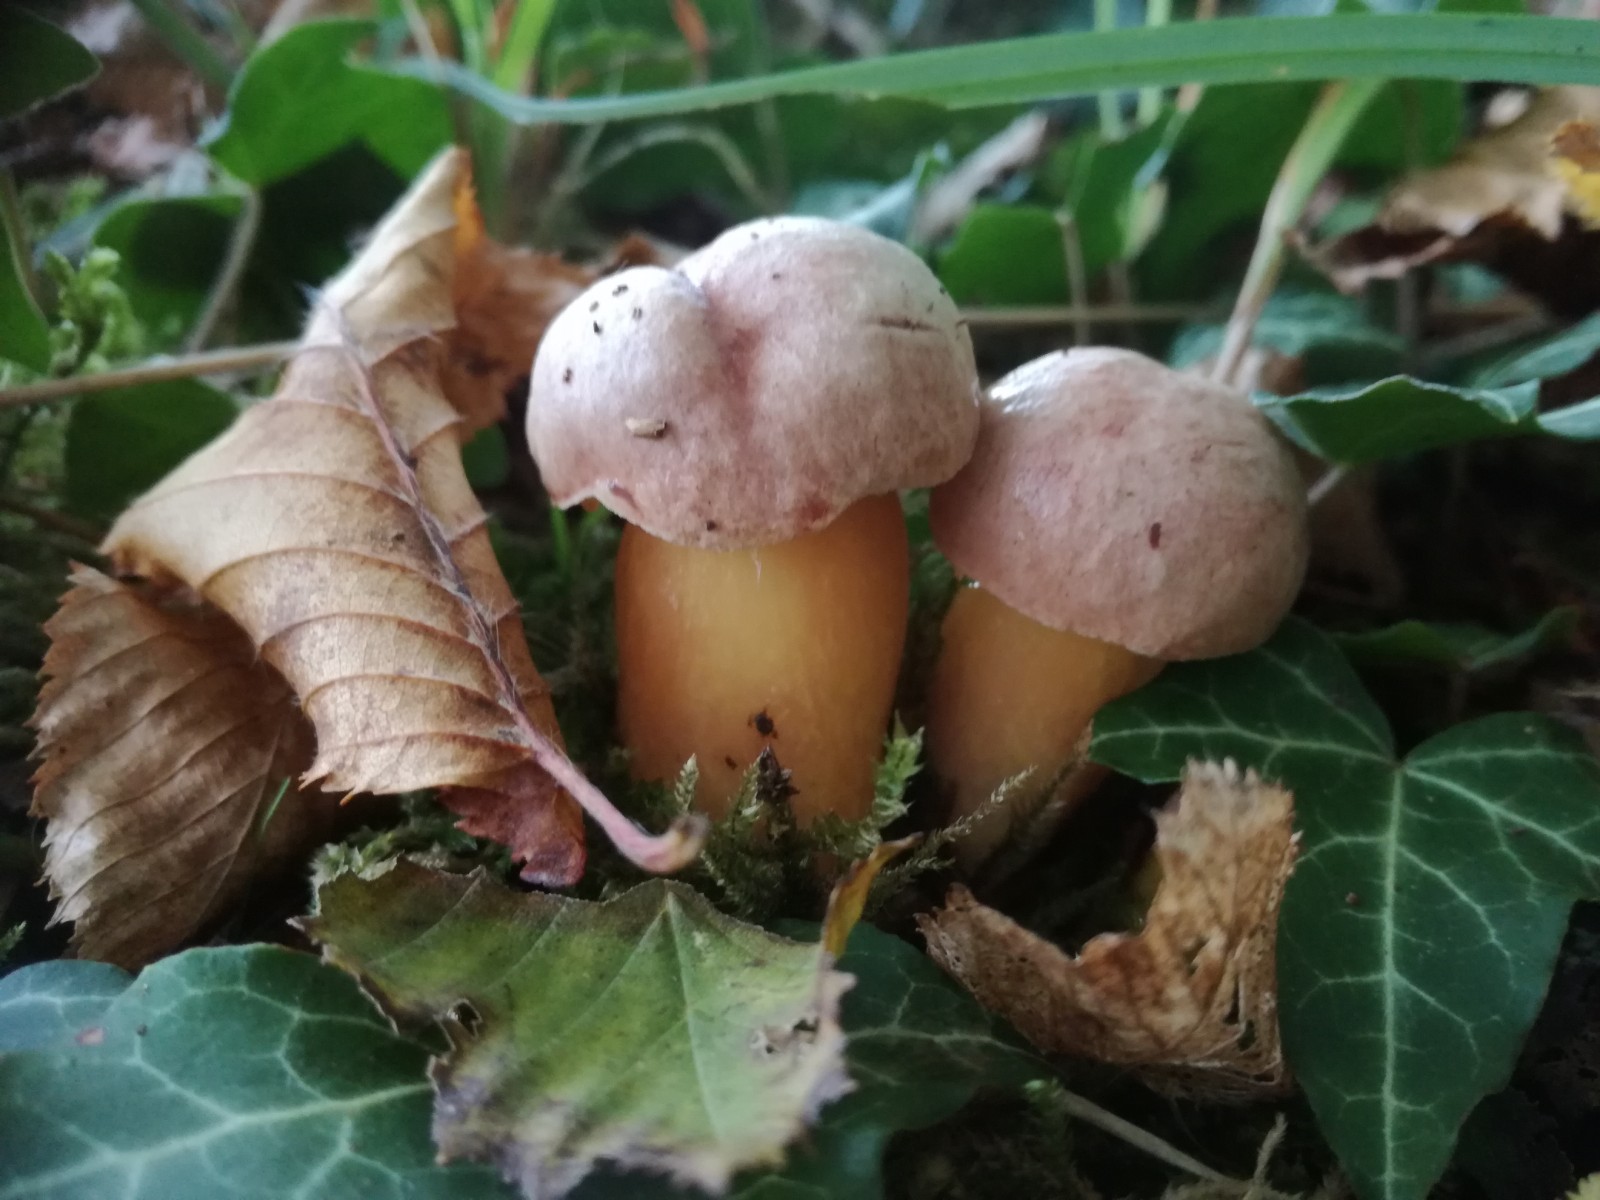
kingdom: Fungi
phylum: Basidiomycota
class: Agaricomycetes
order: Boletales
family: Boletaceae
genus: Aureoboletus
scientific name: Aureoboletus gentilis
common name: guldrørhat
